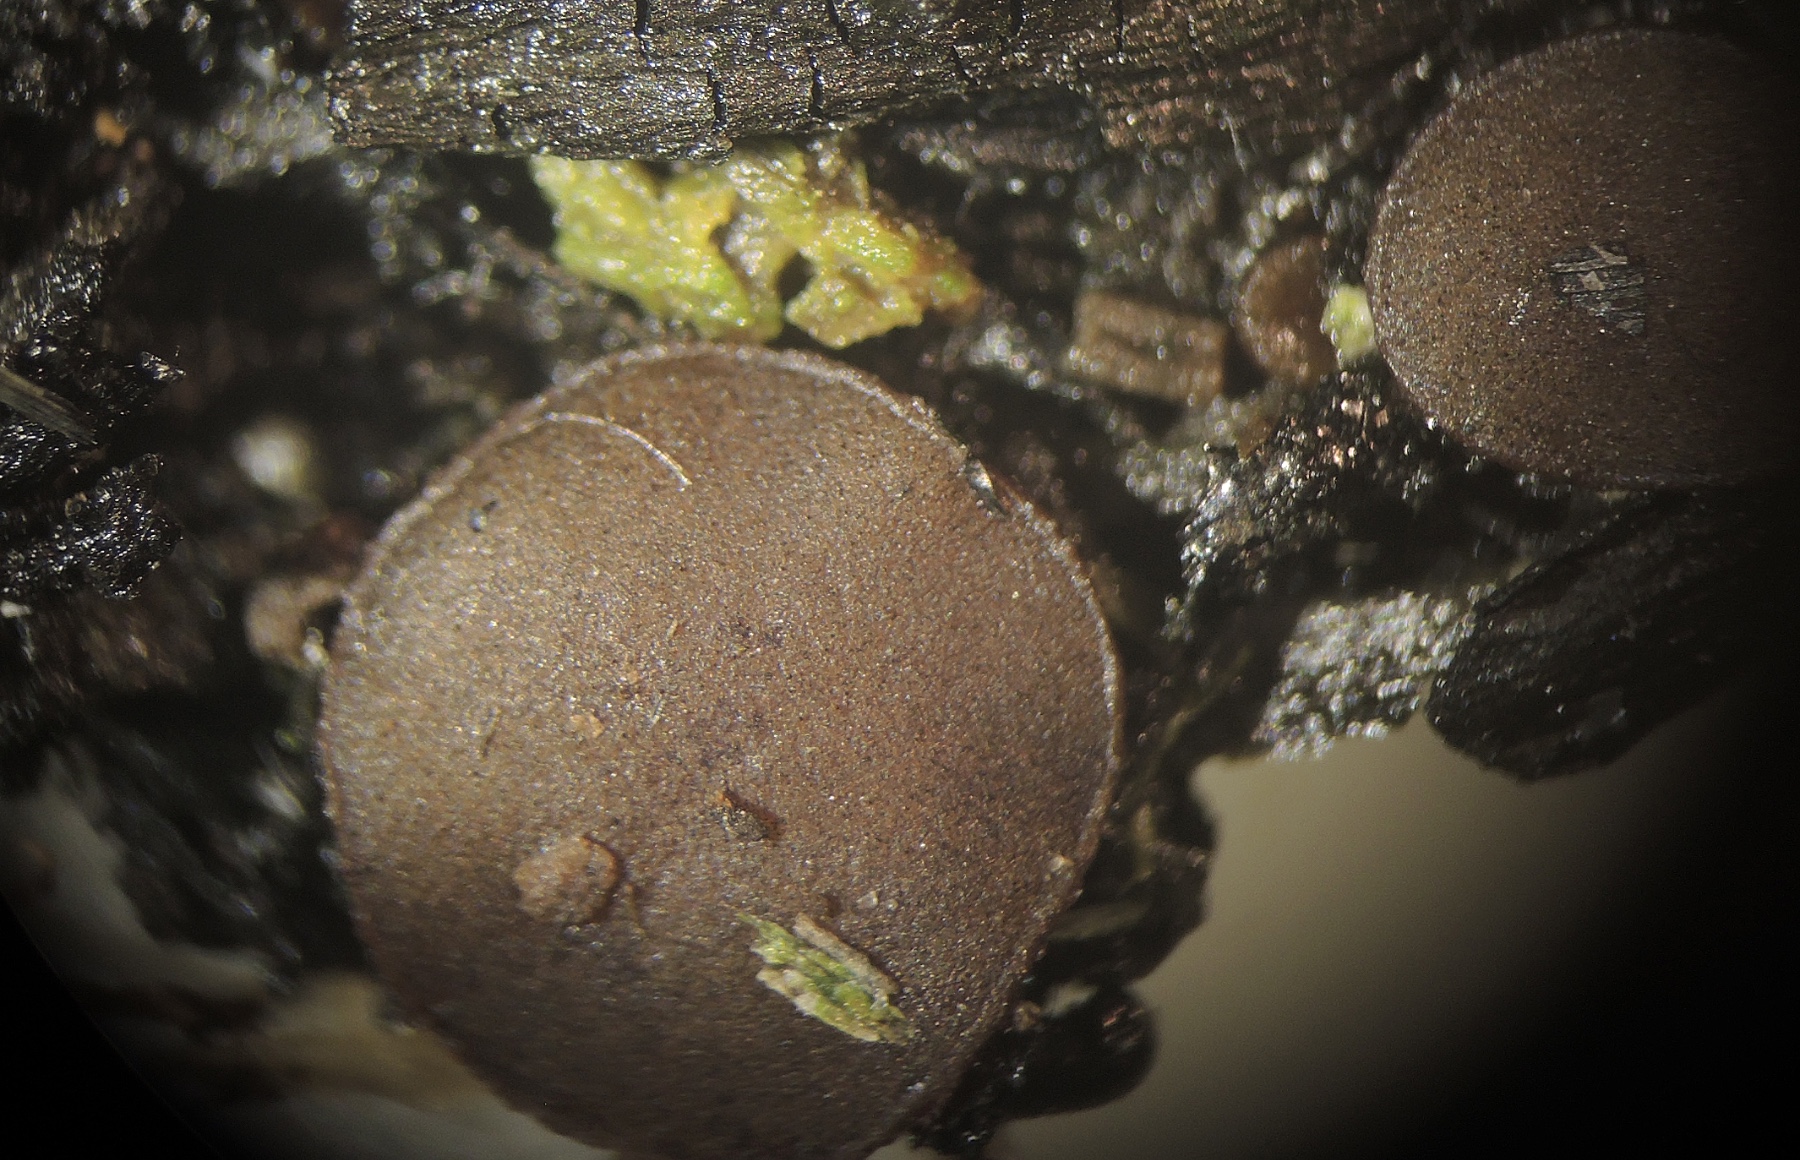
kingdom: Fungi
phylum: Ascomycota
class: Pezizomycetes
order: Pezizales
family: Ascobolaceae
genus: Ascobolus
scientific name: Ascobolus carbonarius
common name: kul-prikbæger
